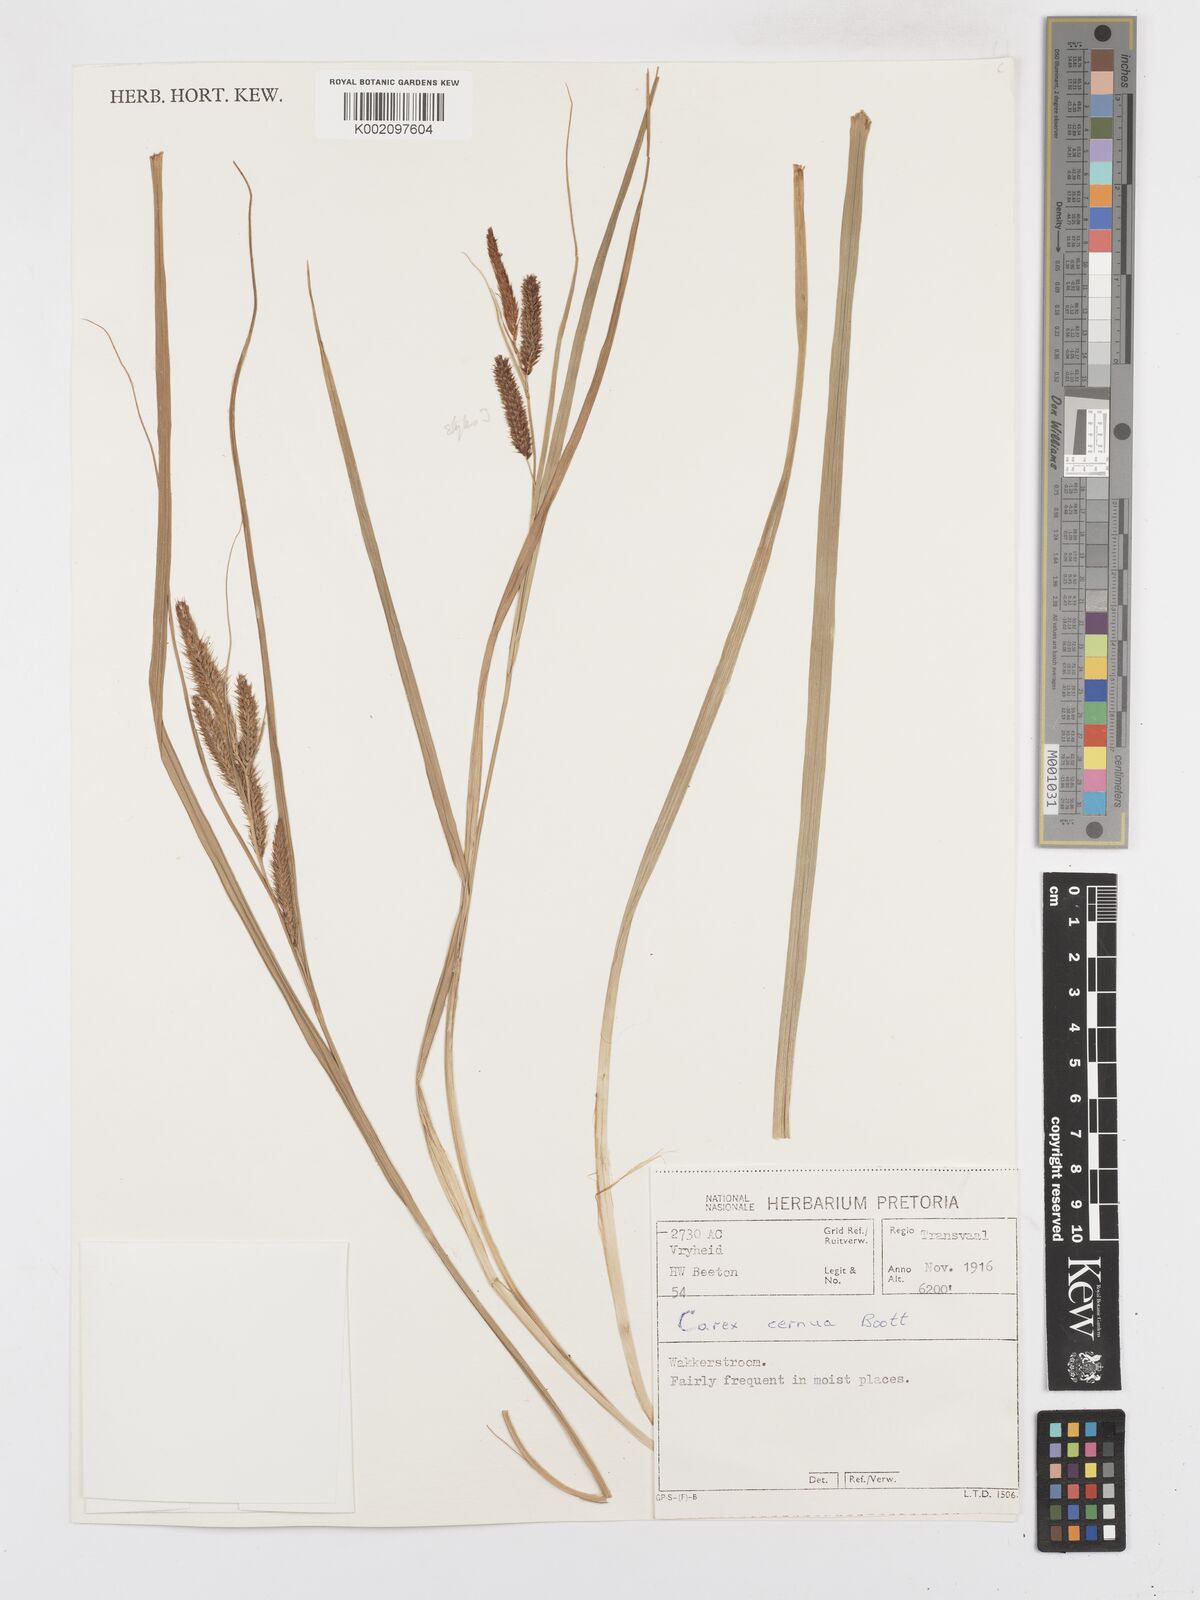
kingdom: Plantae
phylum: Tracheophyta
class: Liliopsida
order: Poales
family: Cyperaceae
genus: Carex
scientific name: Carex cognata
